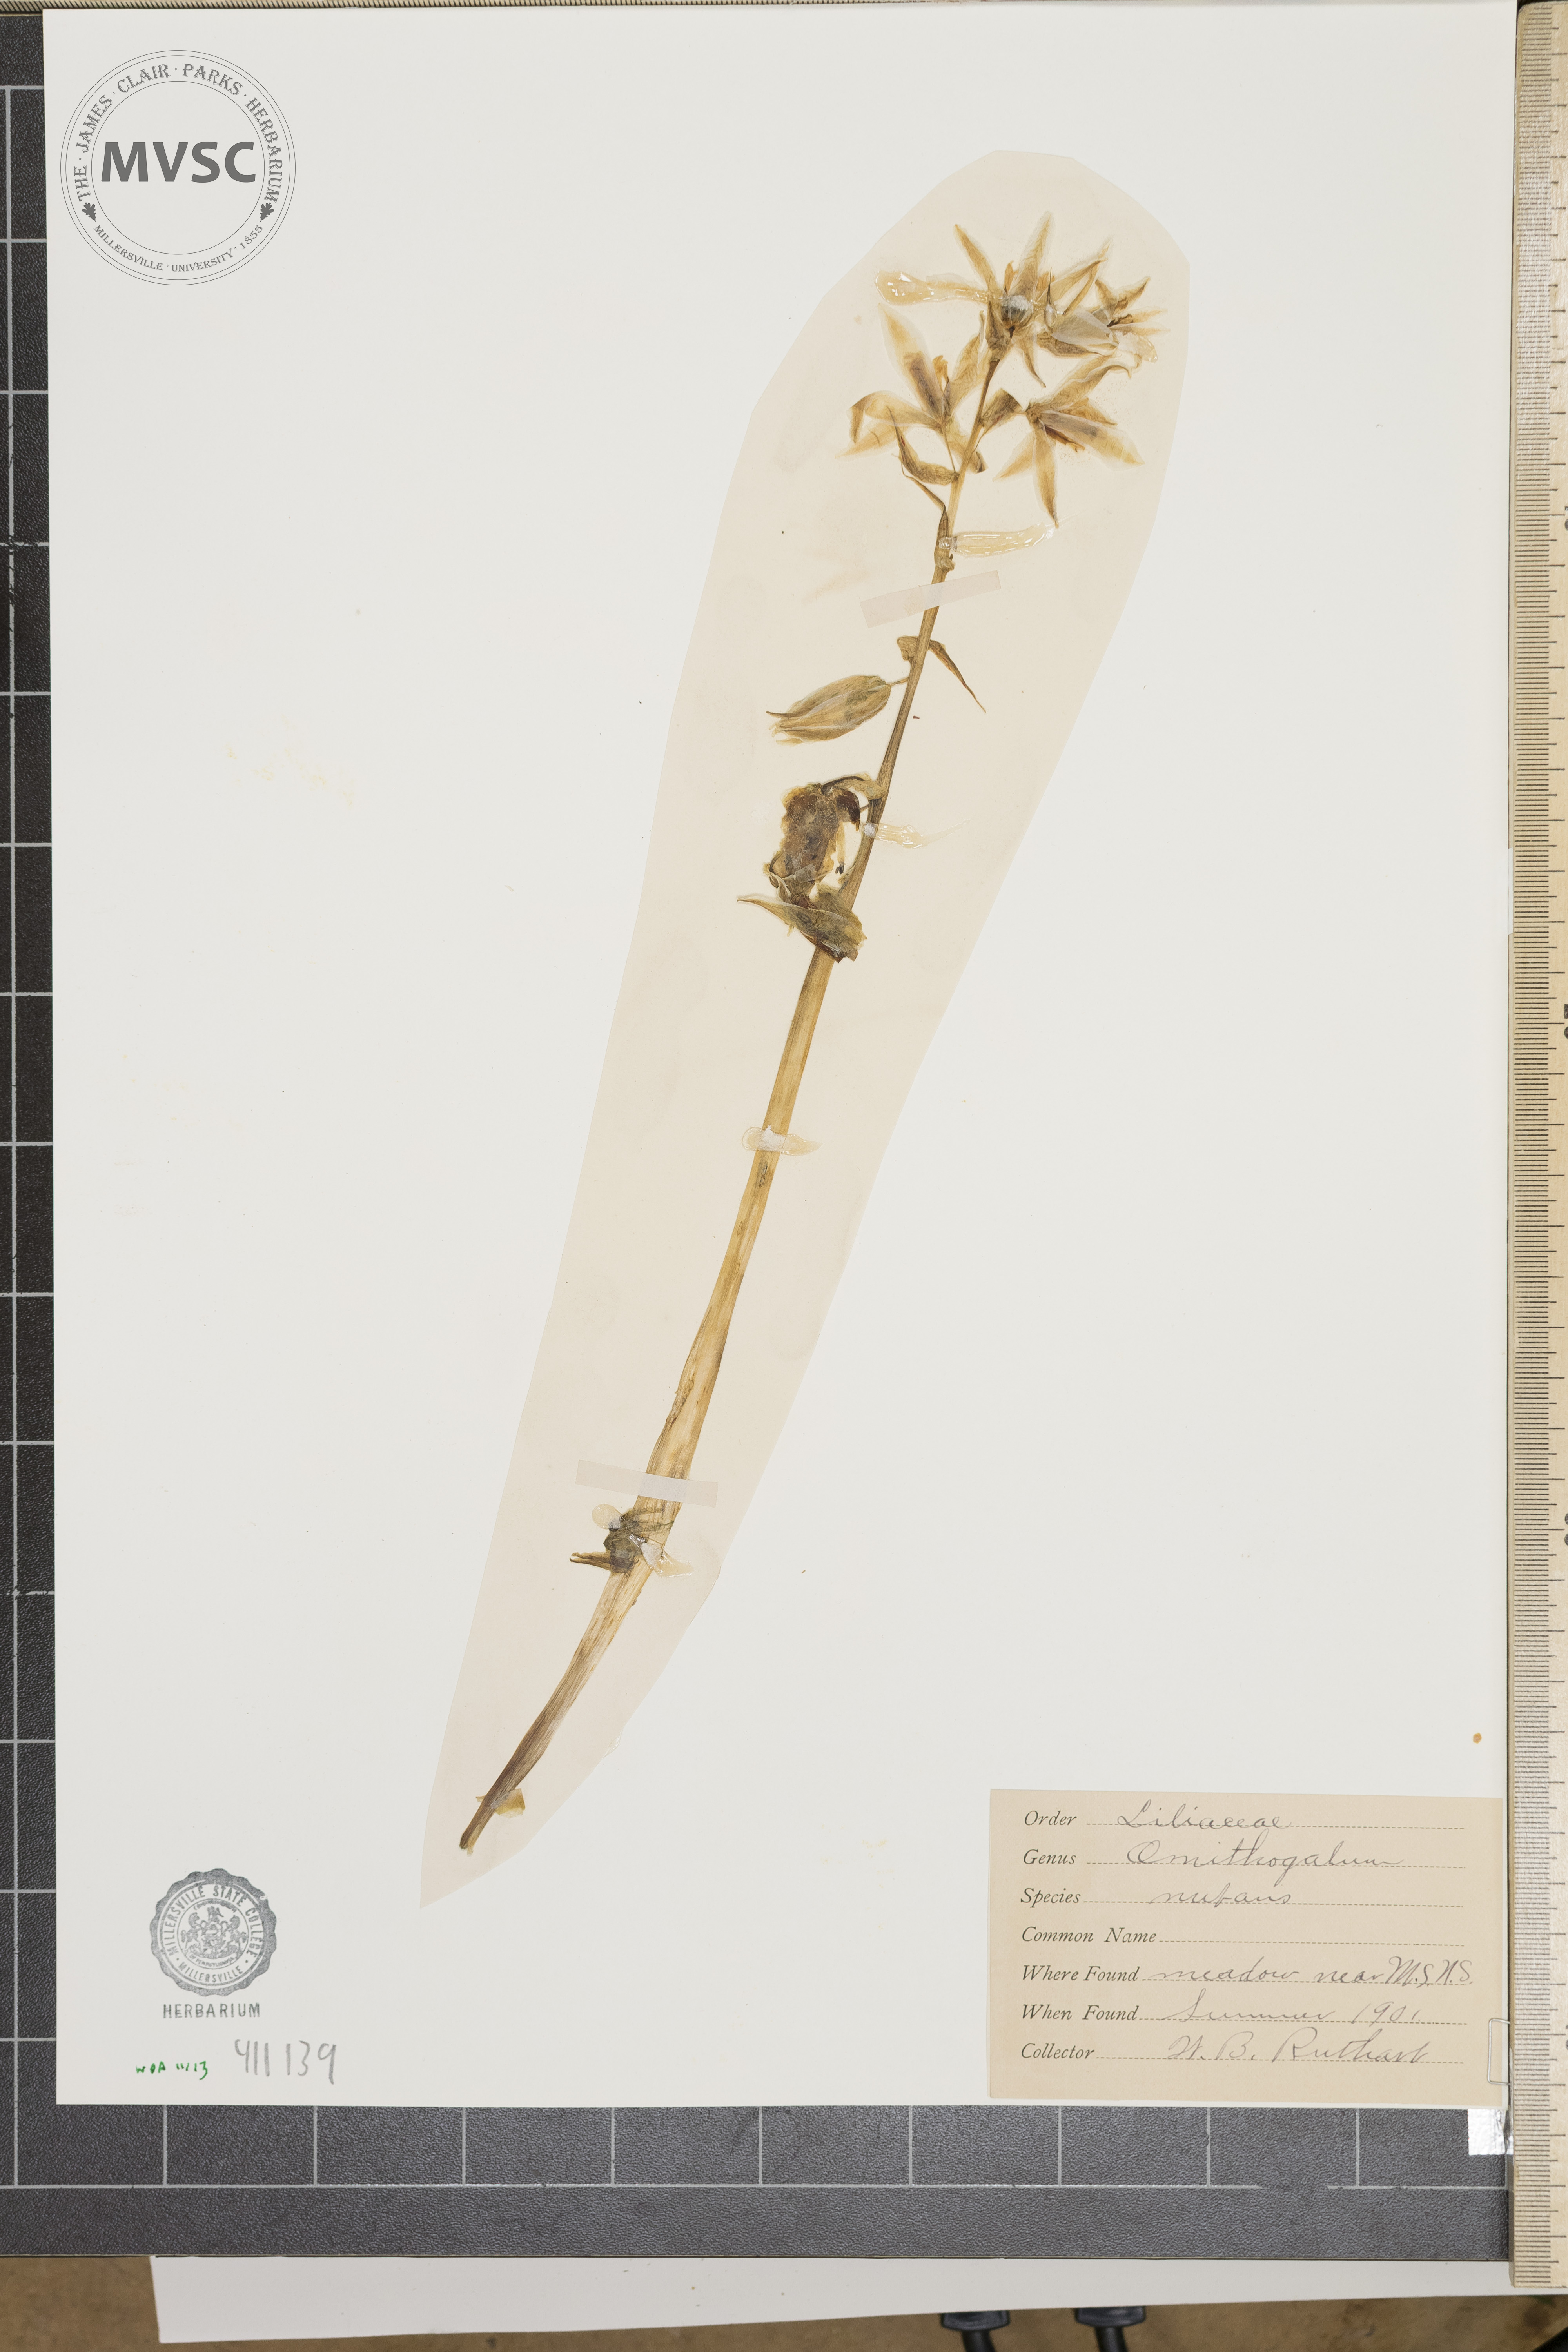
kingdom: Plantae
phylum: Tracheophyta
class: Liliopsida
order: Asparagales
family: Asparagaceae
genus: Ornithogalum
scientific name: Ornithogalum nutans
